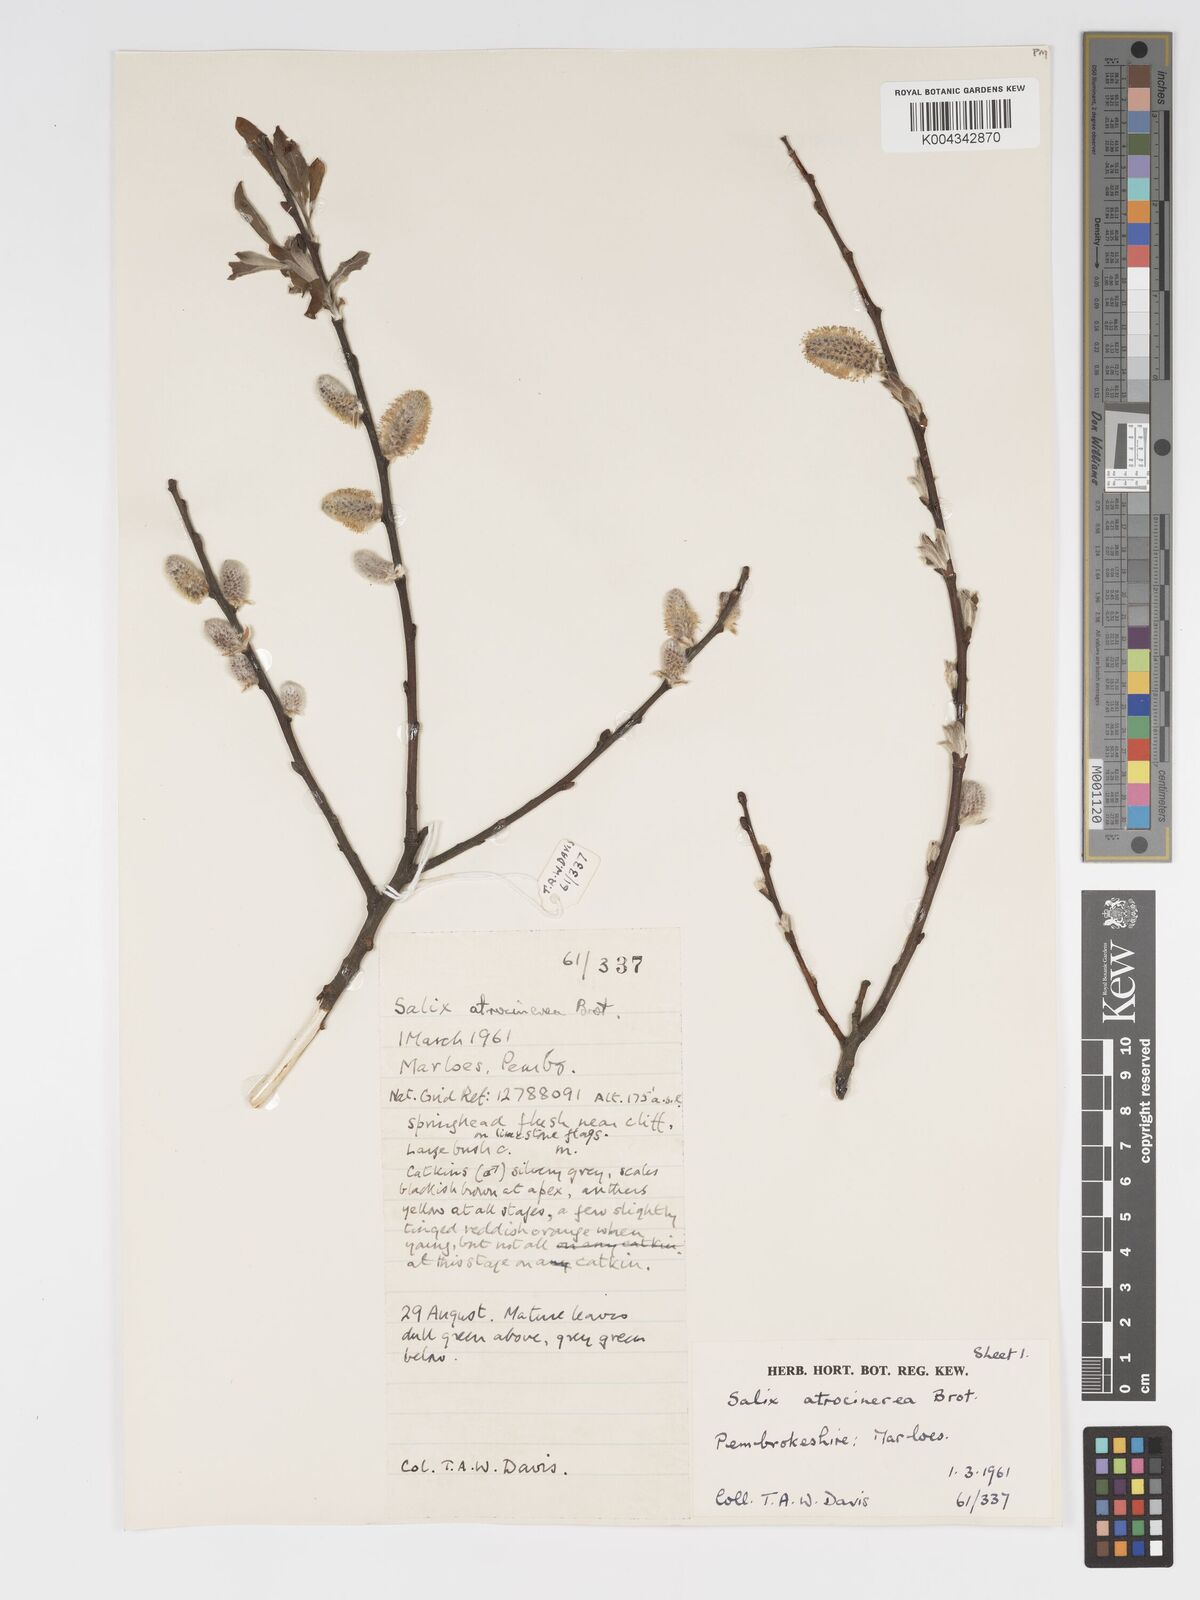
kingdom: Plantae
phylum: Tracheophyta
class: Magnoliopsida
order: Malpighiales
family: Salicaceae
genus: Salix
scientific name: Salix atrocinerea
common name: Rusty willow
